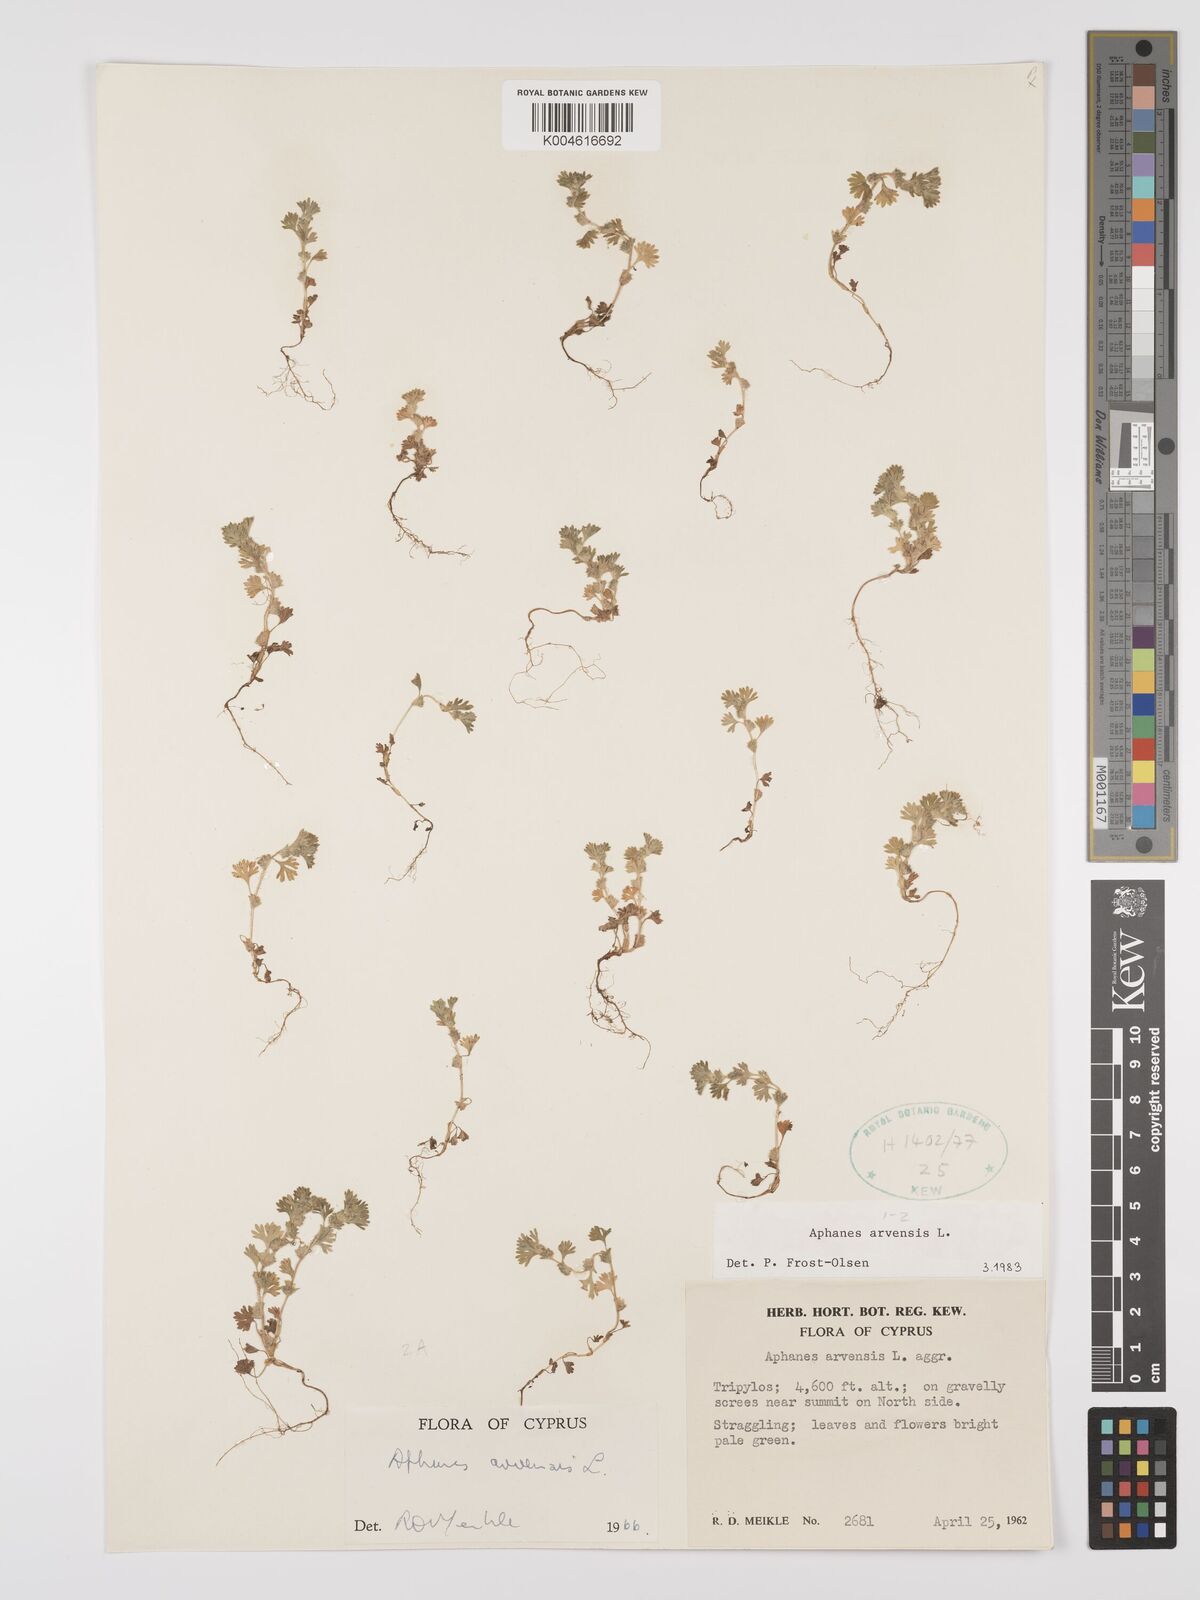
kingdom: Plantae
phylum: Tracheophyta
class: Magnoliopsida
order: Rosales
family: Rosaceae
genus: Aphanes
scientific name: Aphanes arvensis
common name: Parsley-piert
